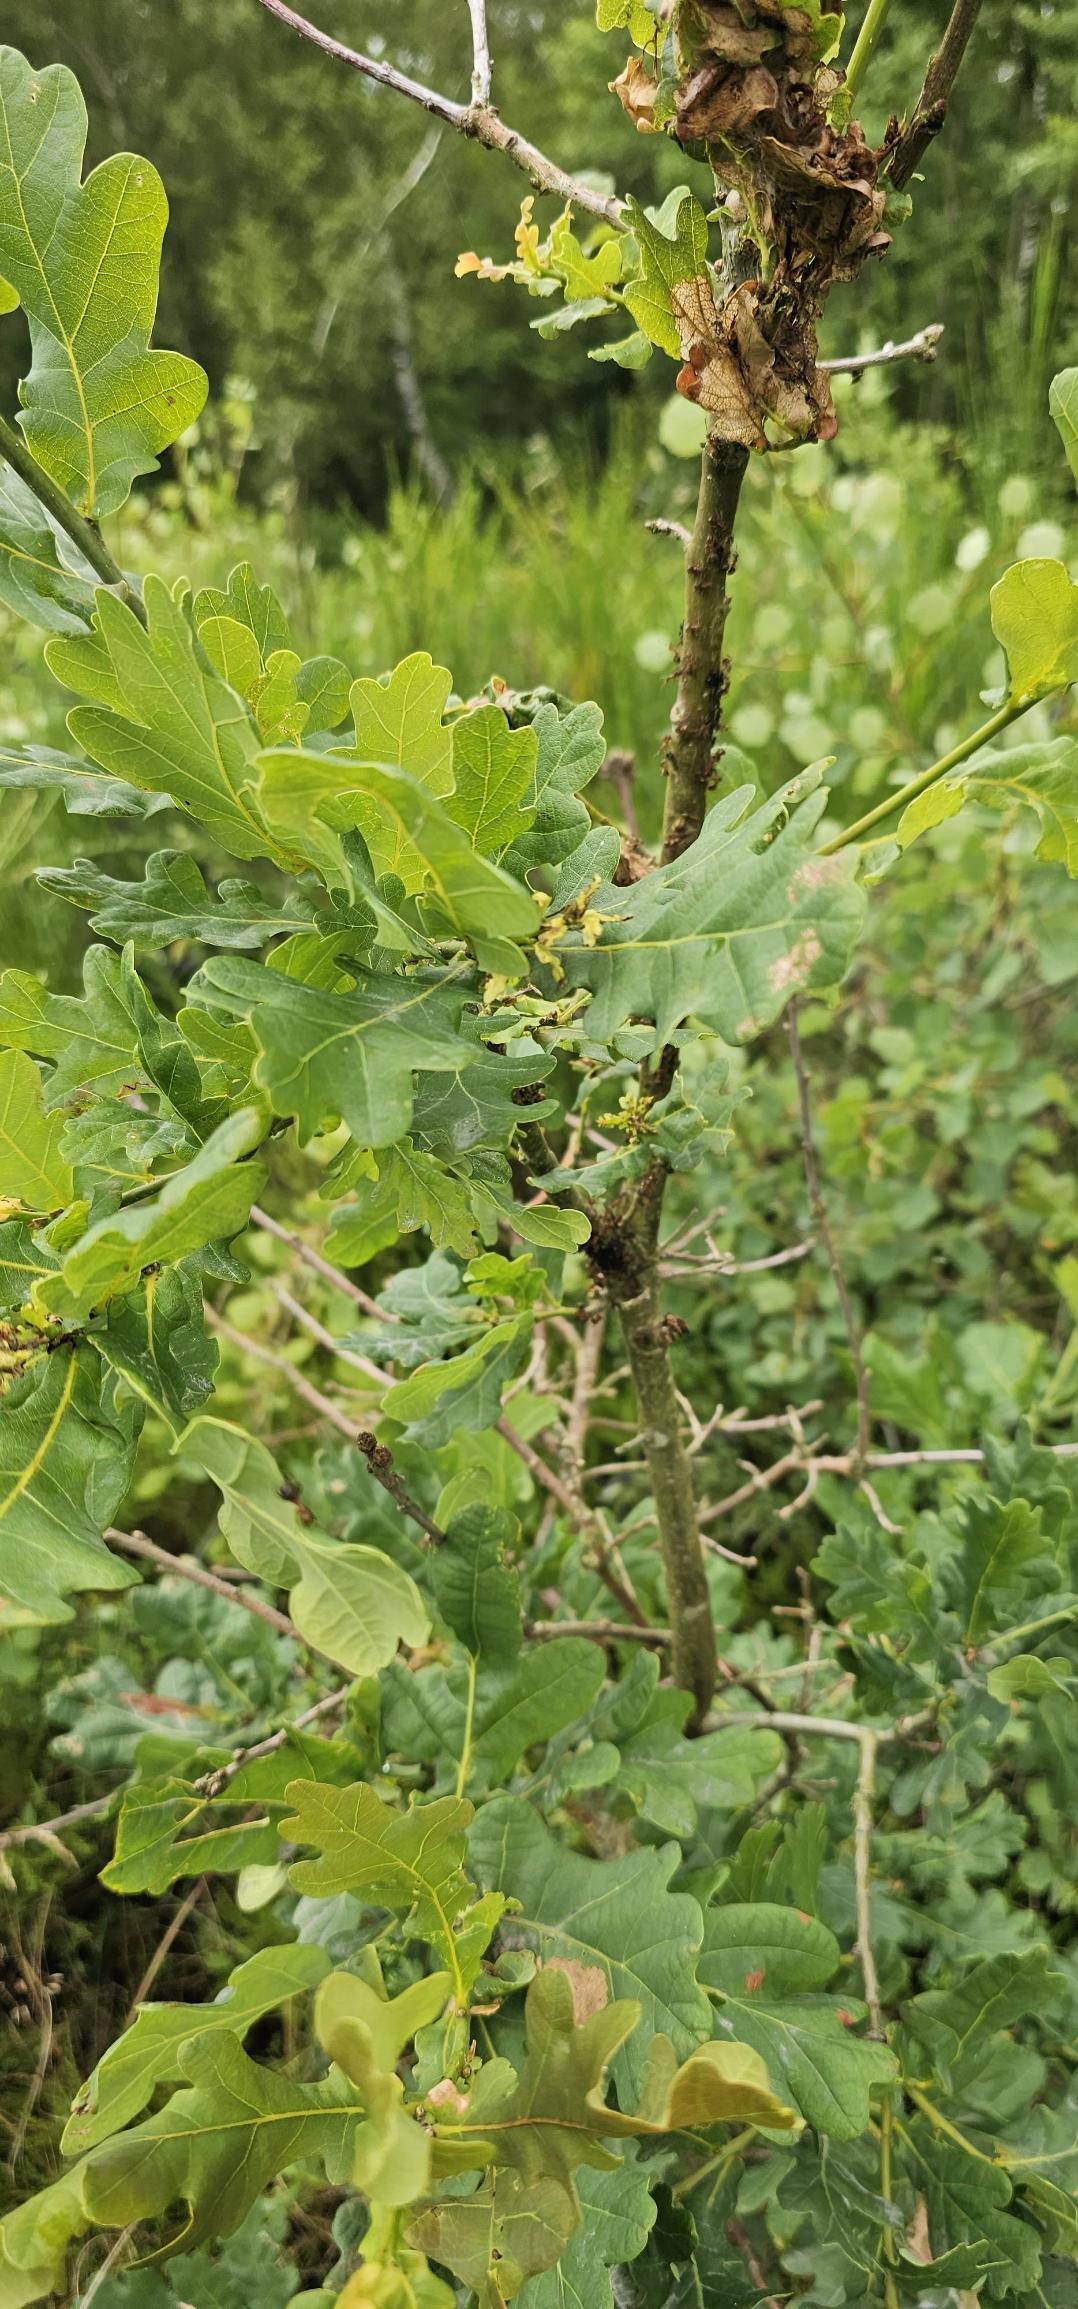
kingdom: Plantae
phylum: Tracheophyta
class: Magnoliopsida
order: Fagales
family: Fagaceae
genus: Quercus
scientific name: Quercus robur
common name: Stilk-eg/almindelig eg
